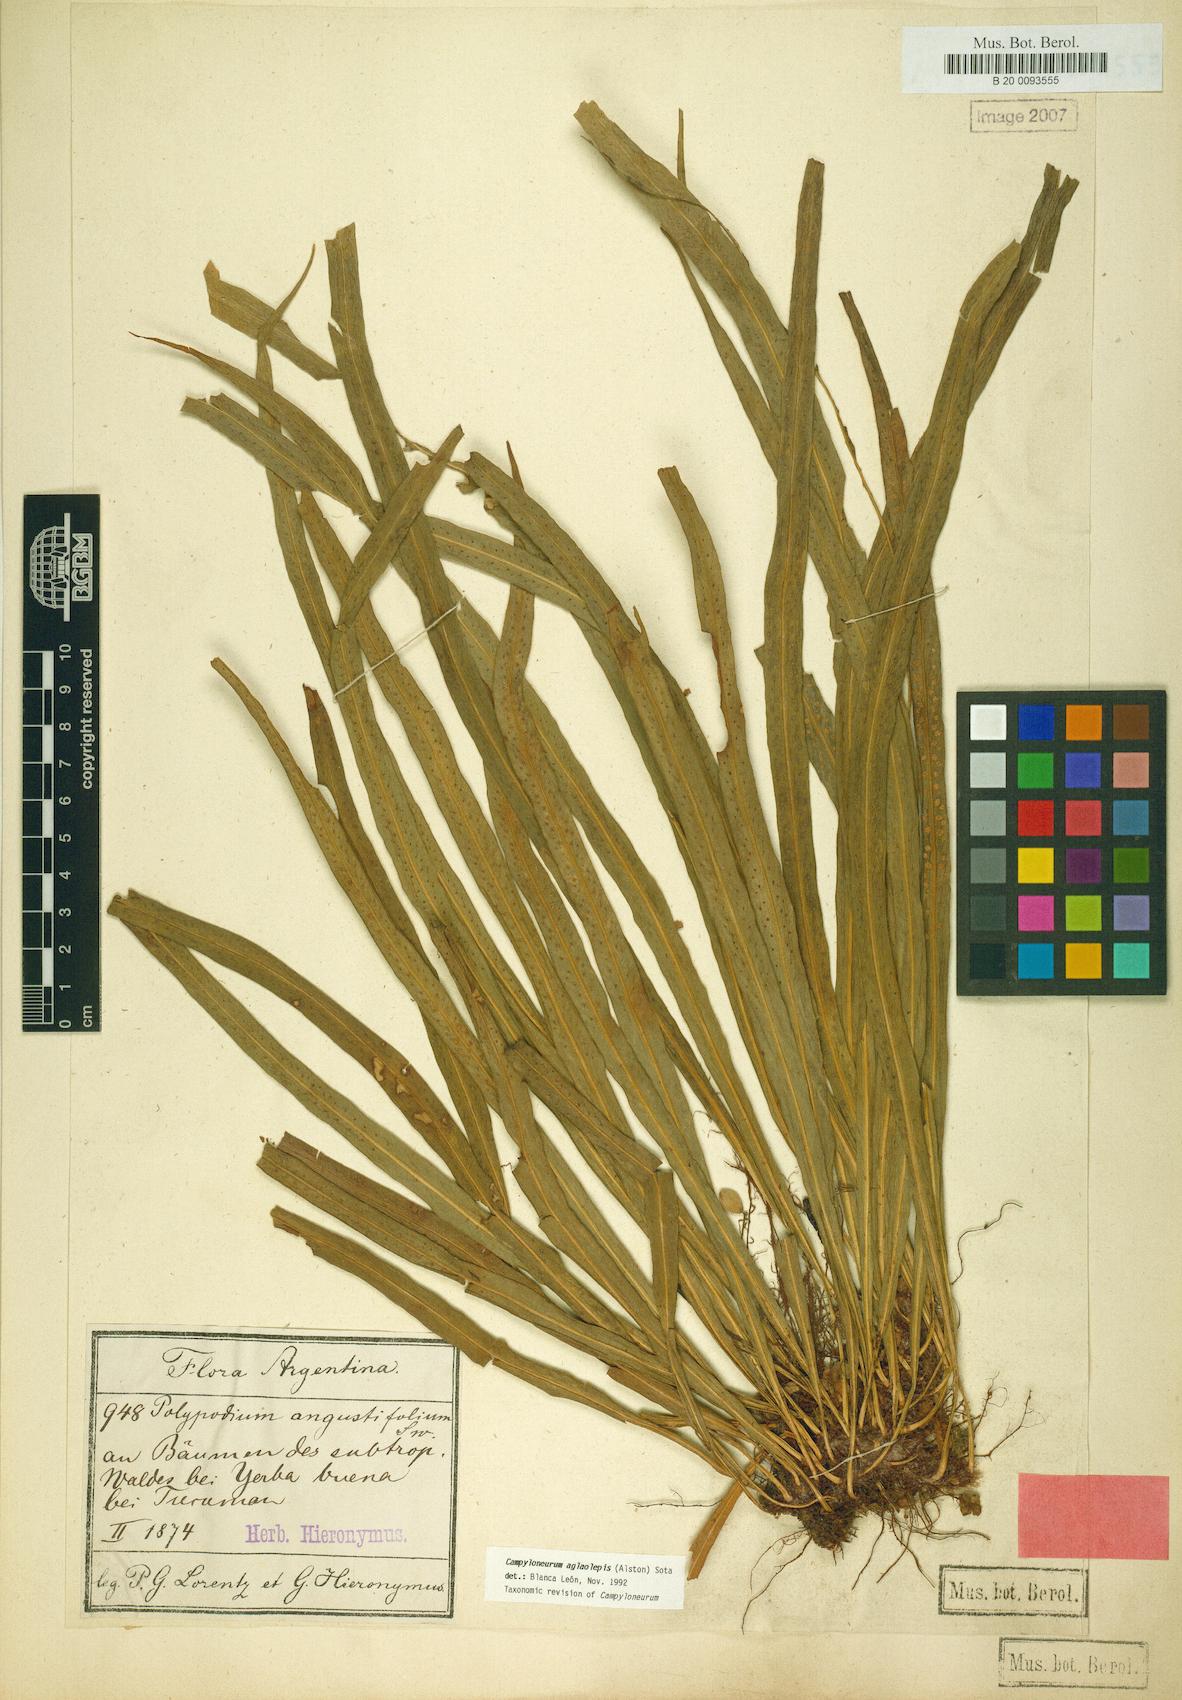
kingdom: Plantae
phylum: Tracheophyta
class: Polypodiopsida
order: Polypodiales
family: Polypodiaceae
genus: Campyloneurum
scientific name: Campyloneurum aglaolepis
